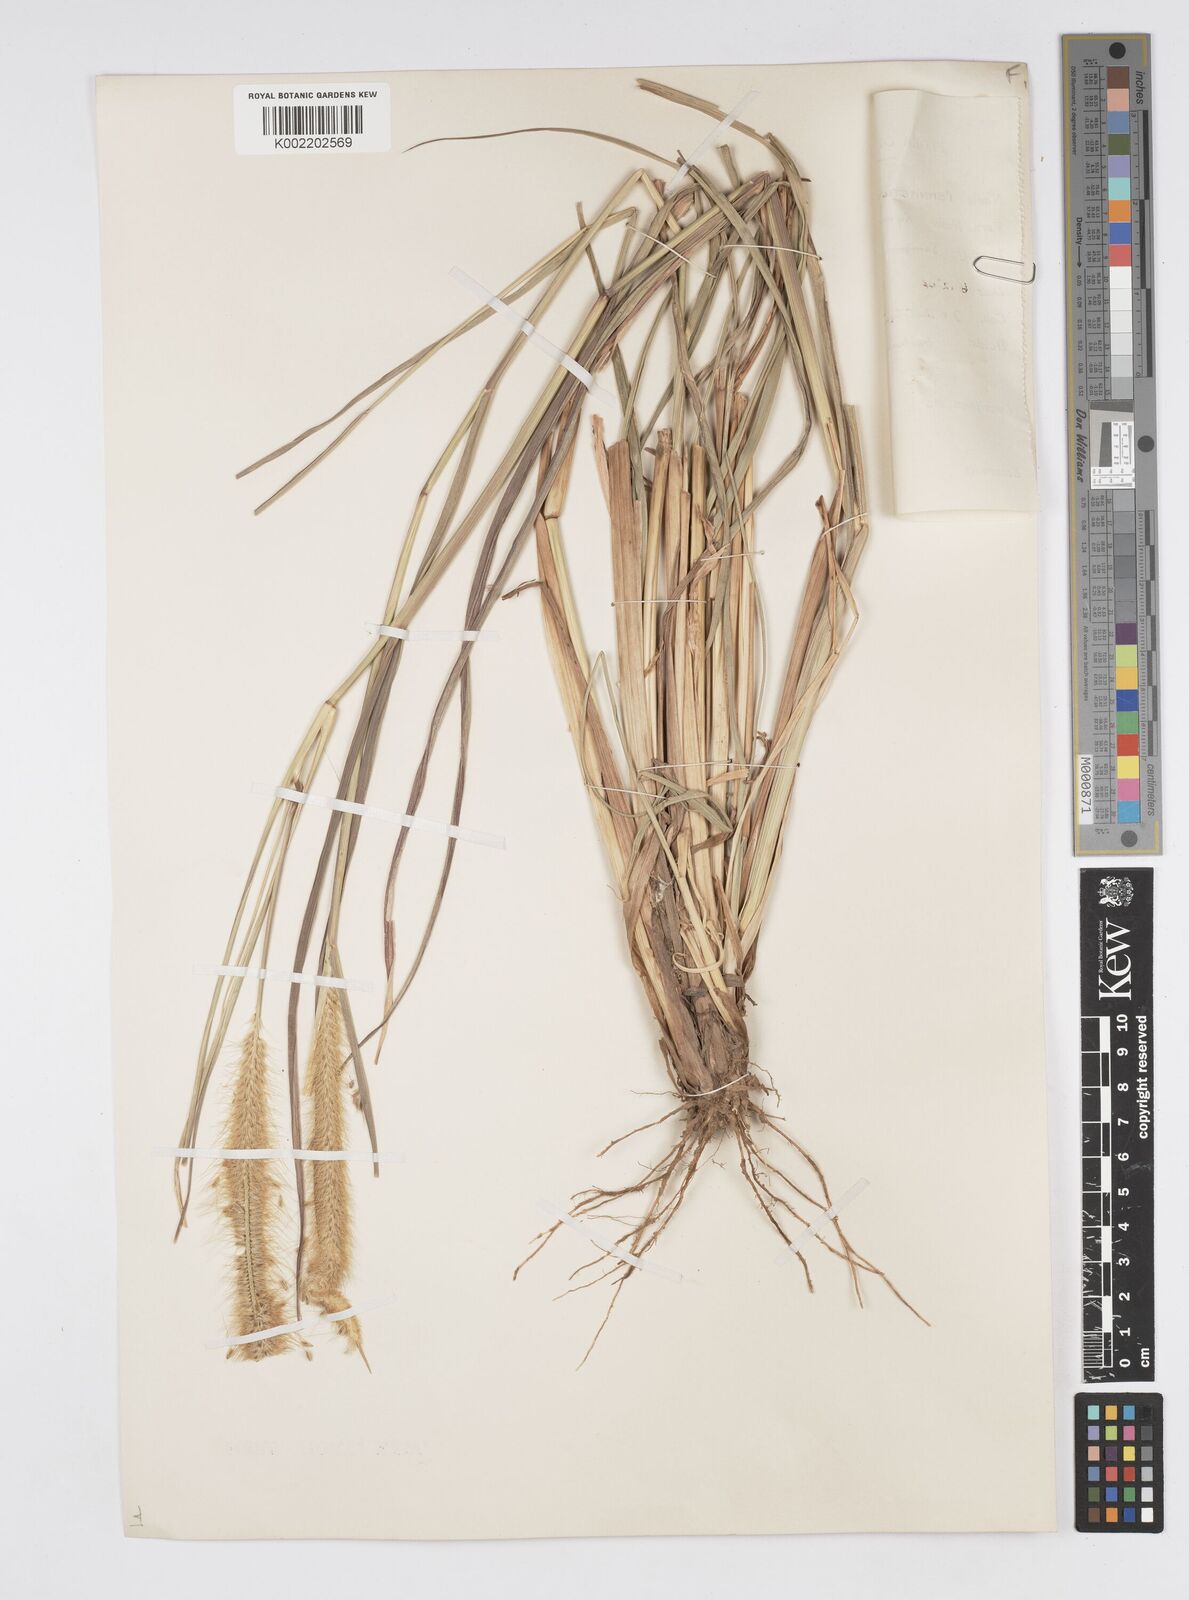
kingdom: Plantae
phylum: Tracheophyta
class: Liliopsida
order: Poales
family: Poaceae
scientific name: Poaceae
